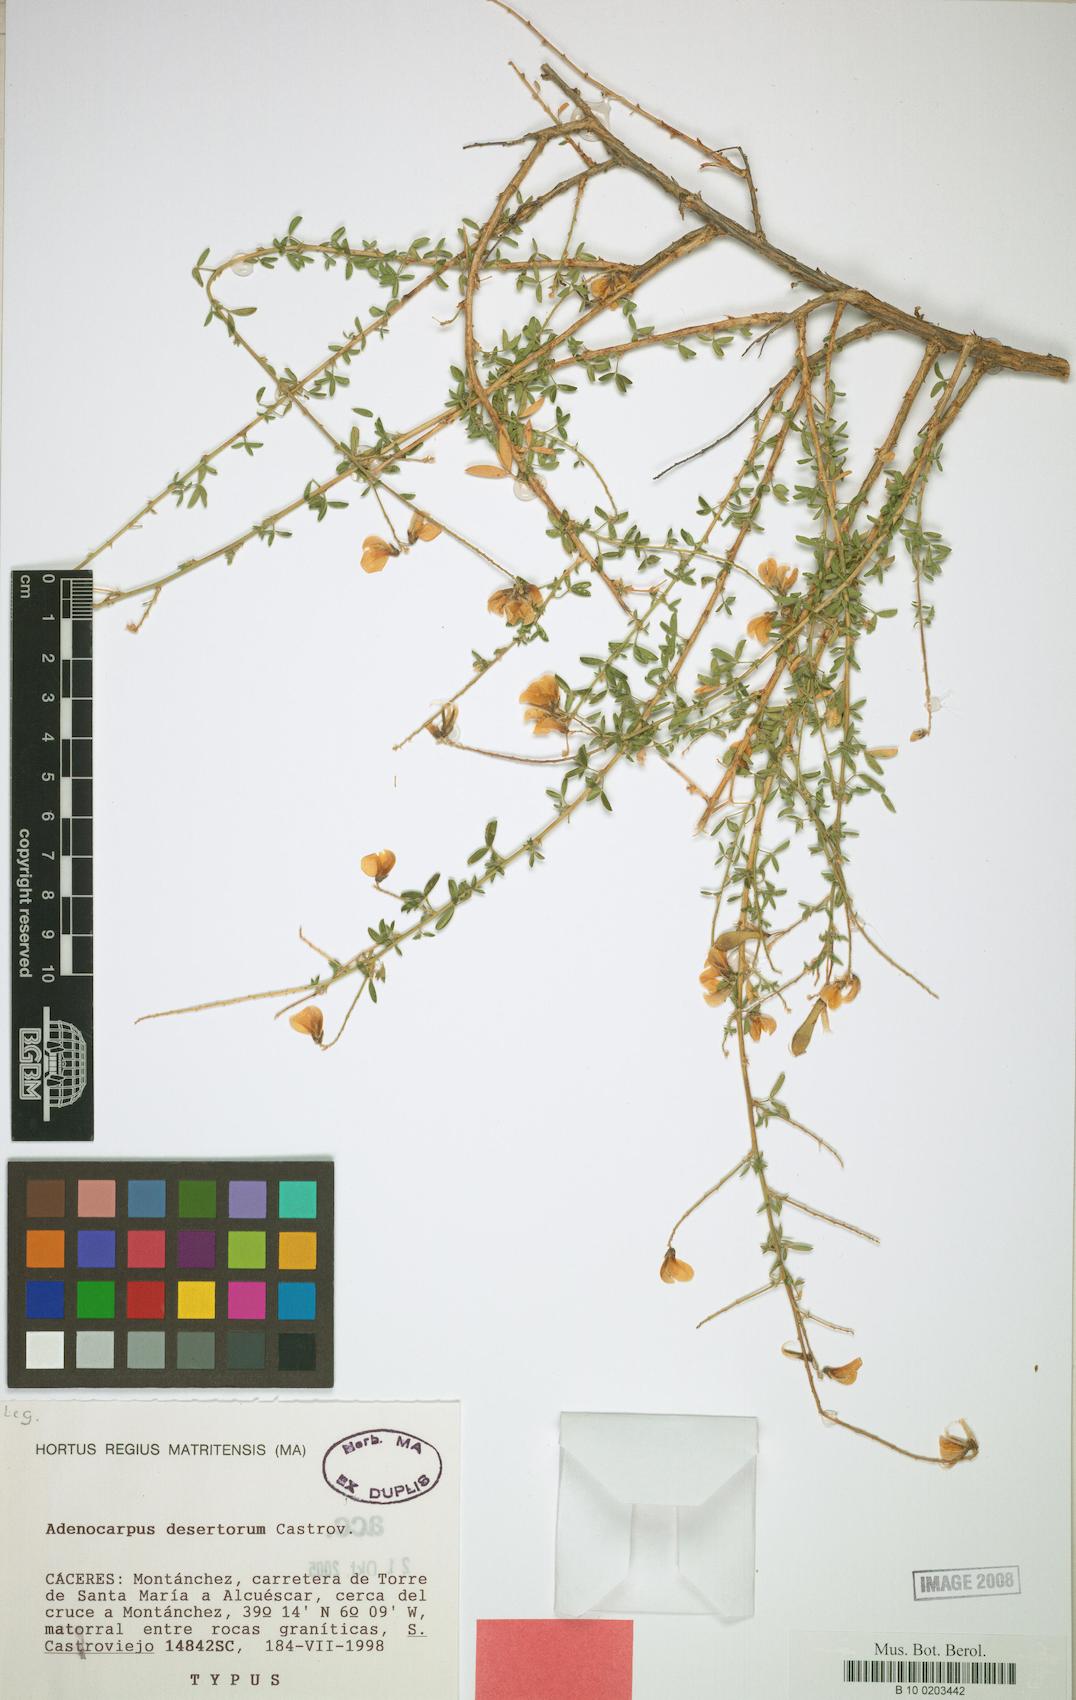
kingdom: Plantae
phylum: Tracheophyta
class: Magnoliopsida
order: Fabales
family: Fabaceae
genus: Adenocarpus
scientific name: Adenocarpus desertorum
